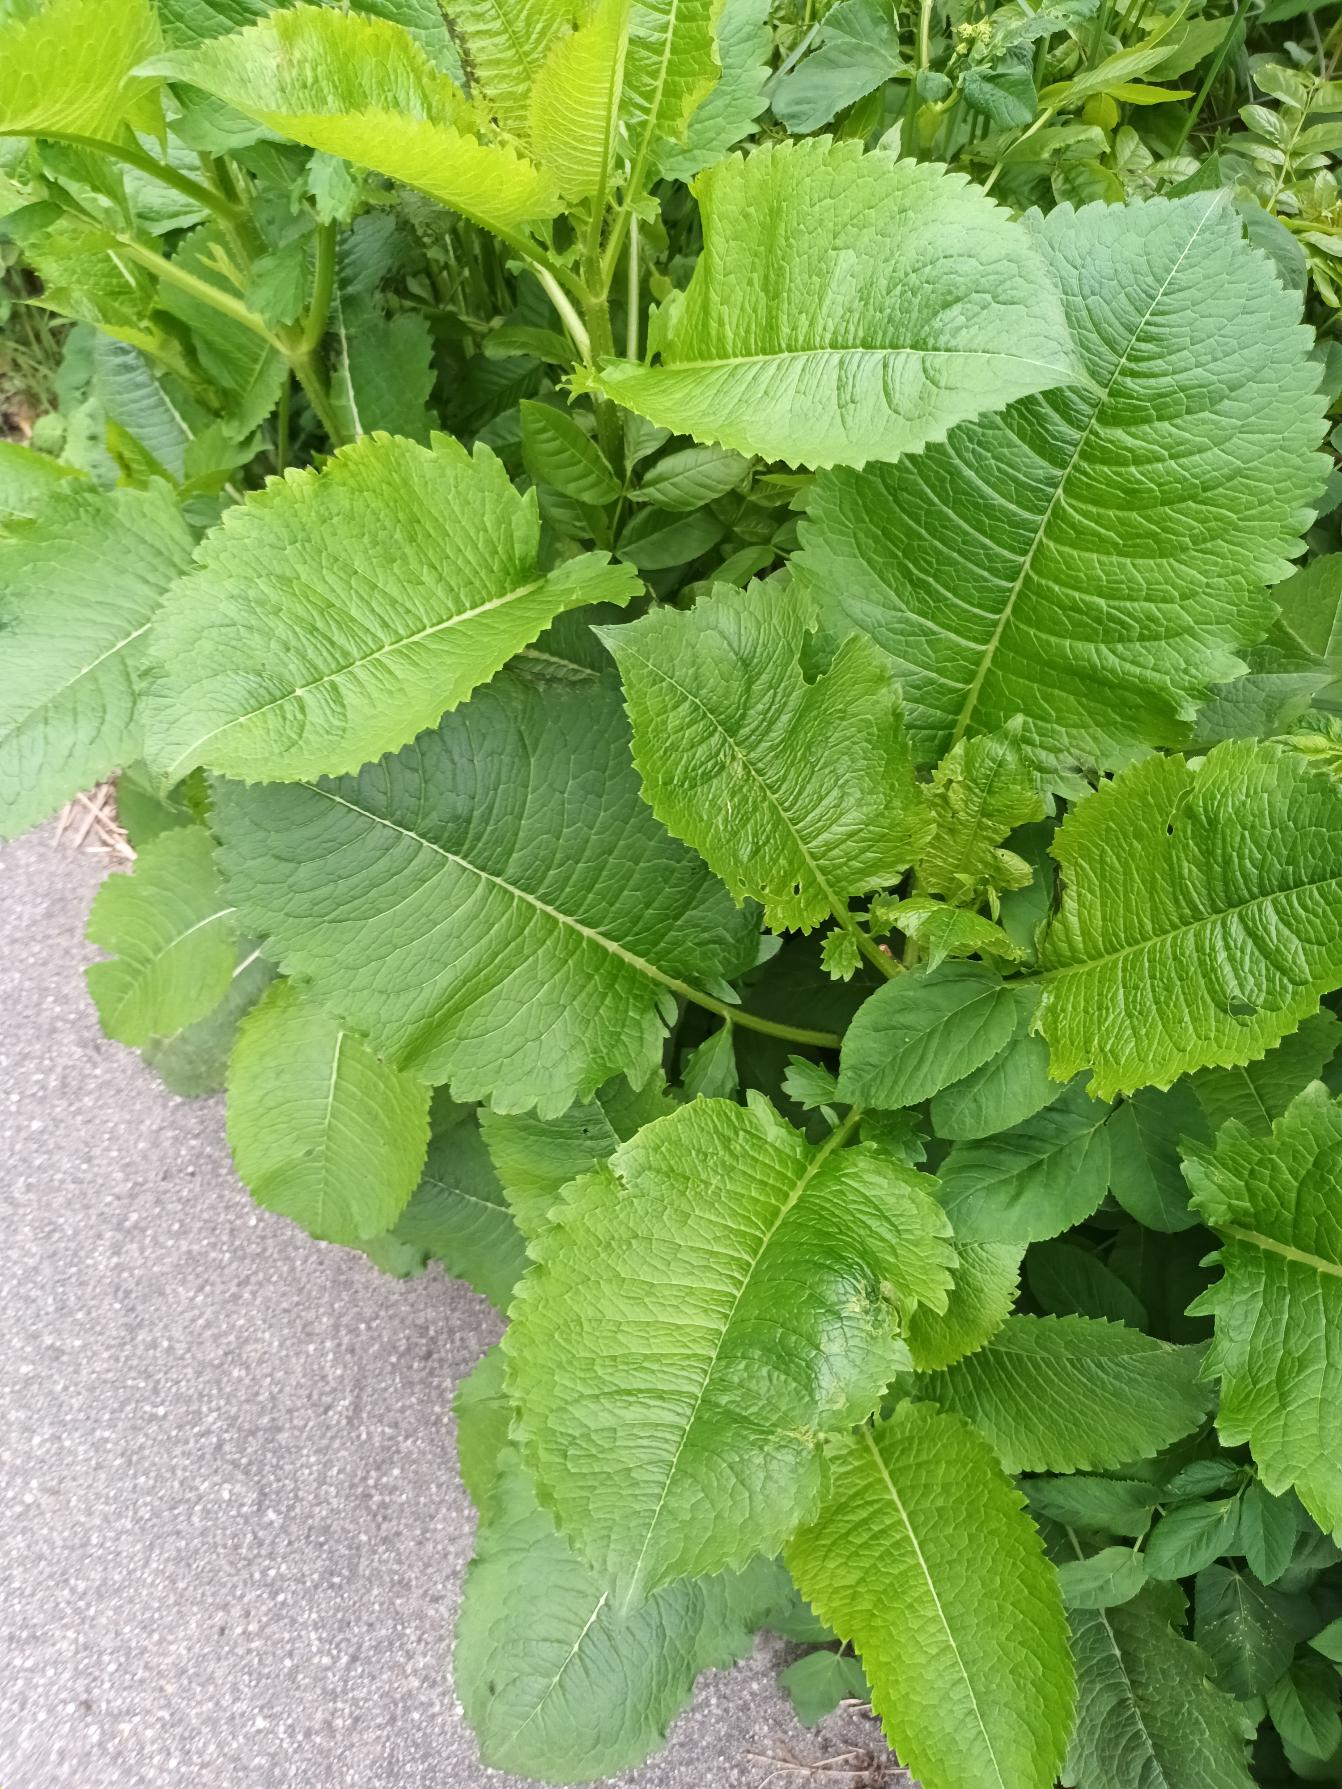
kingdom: Plantae
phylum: Tracheophyta
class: Magnoliopsida
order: Dipsacales
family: Caprifoliaceae
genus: Dipsacus
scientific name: Dipsacus strigosus
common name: Pindsvin-kartebolle
